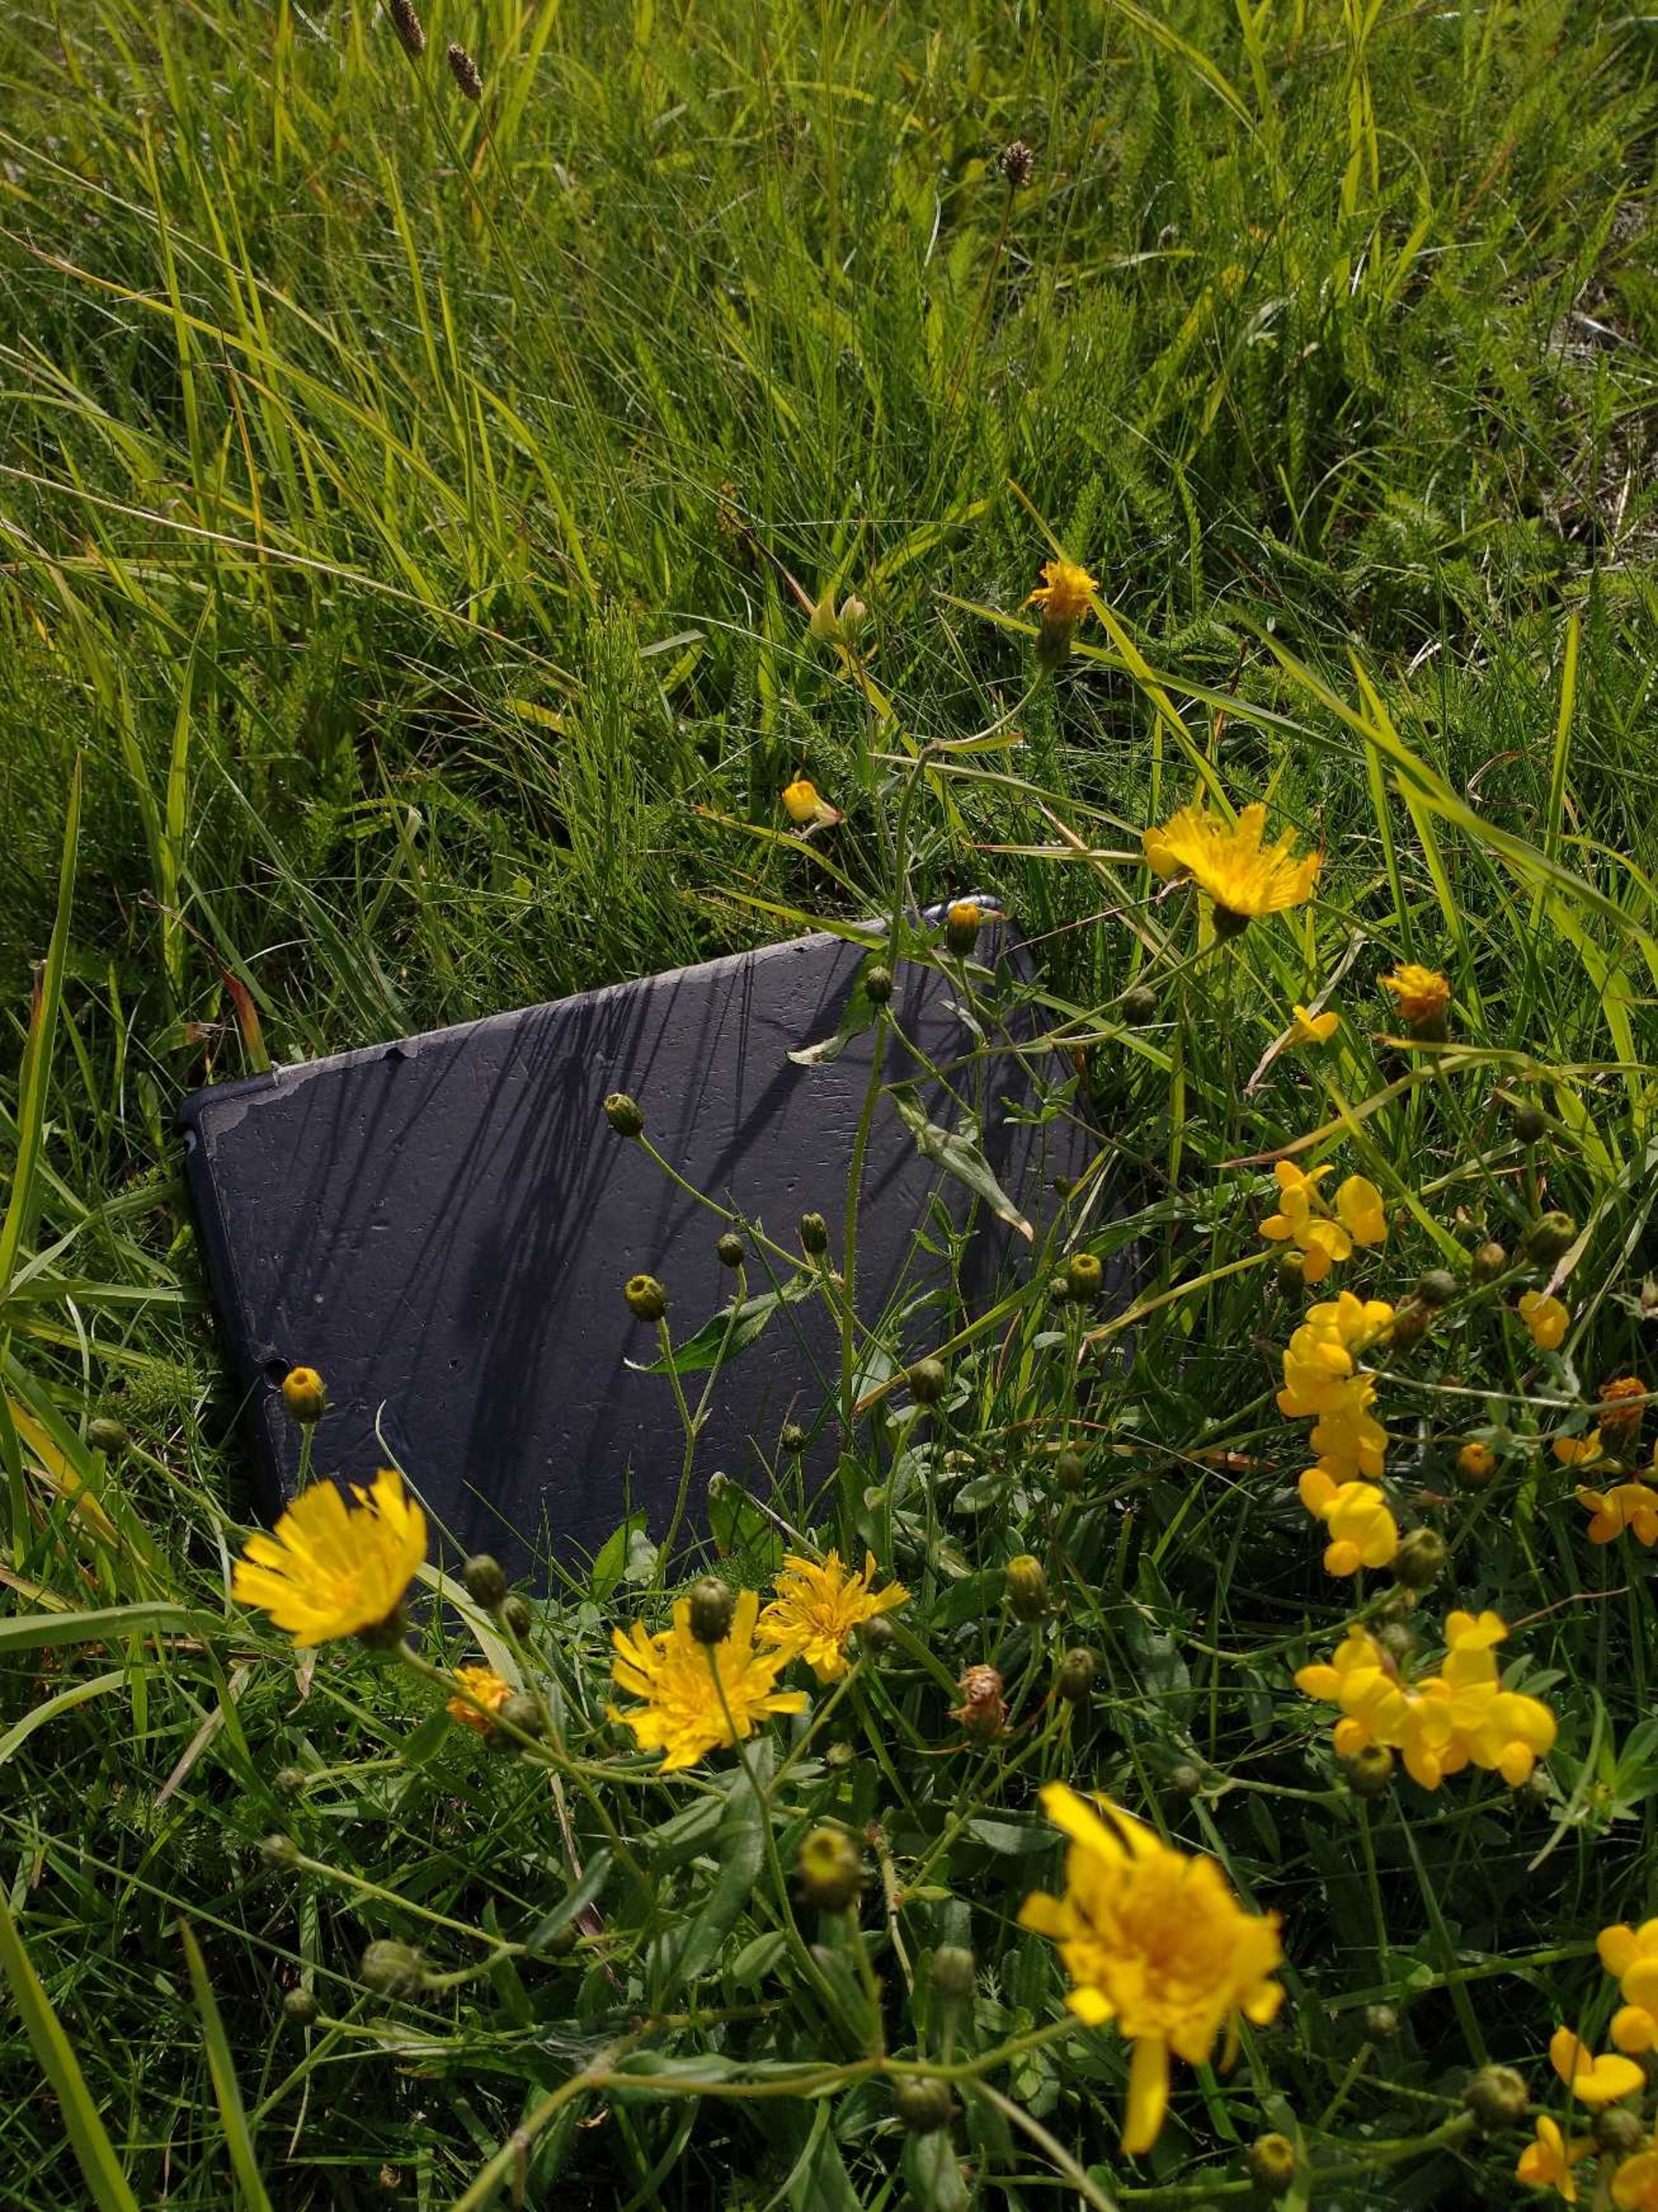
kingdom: Plantae
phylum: Tracheophyta
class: Magnoliopsida
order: Asterales
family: Asteraceae
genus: Hieracium
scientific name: Hieracium umbellatum
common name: Smalbladet høgeurt
